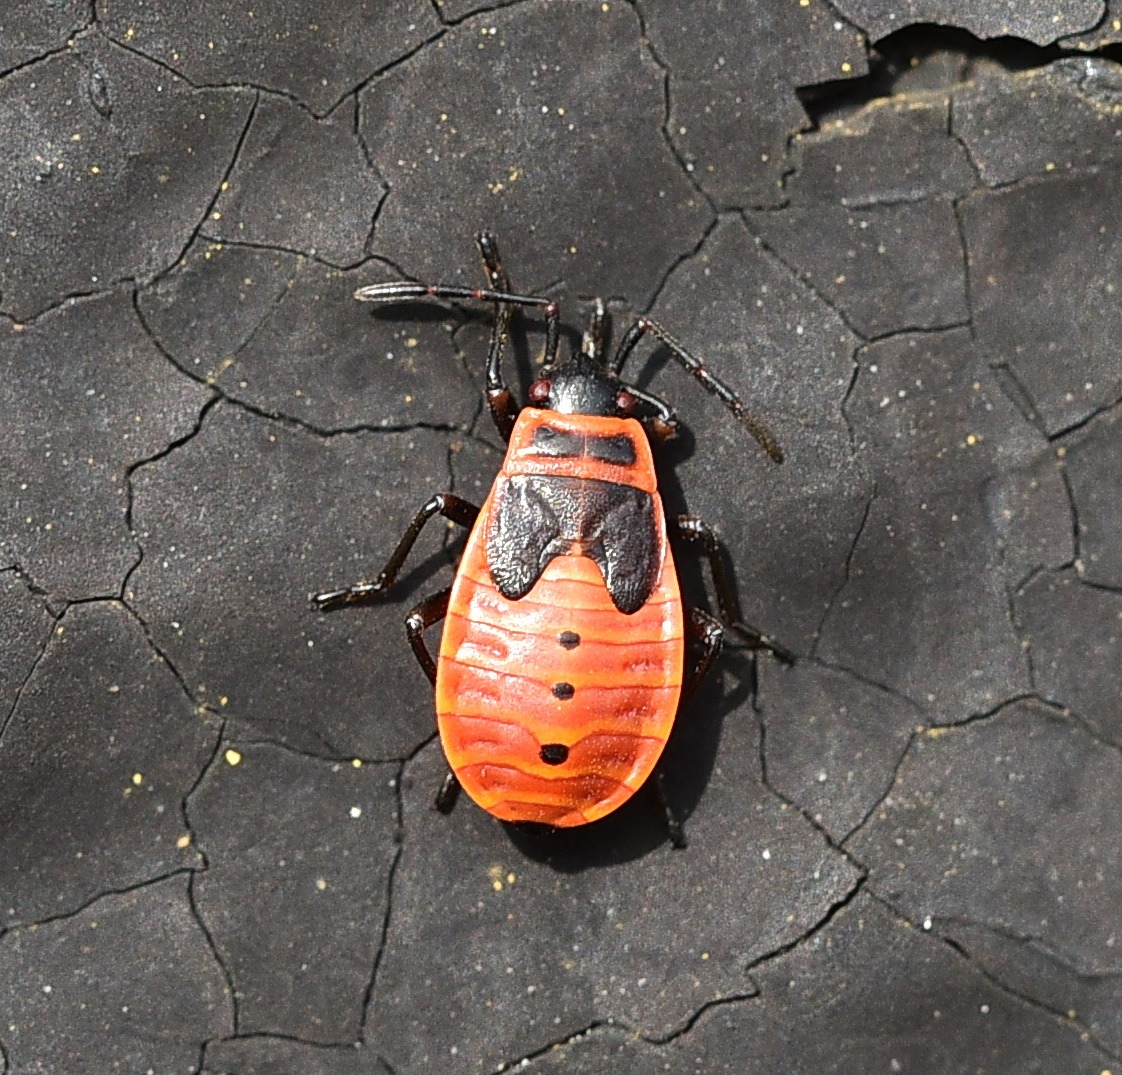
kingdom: Animalia
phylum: Arthropoda
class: Insecta
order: Hemiptera
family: Pyrrhocoridae
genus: Pyrrhocoris
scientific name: Pyrrhocoris apterus
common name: Ildtæge
